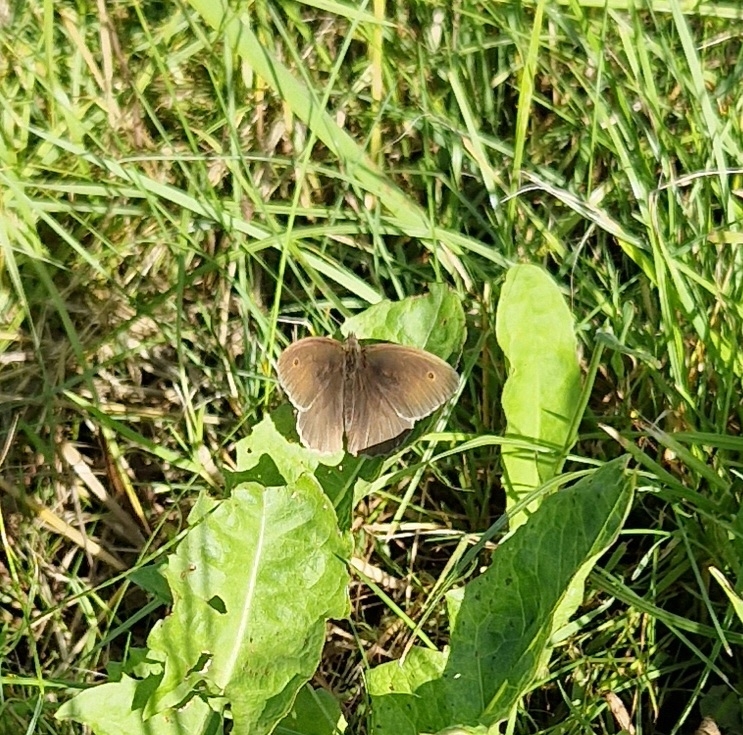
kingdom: Animalia
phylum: Arthropoda
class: Insecta
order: Lepidoptera
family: Nymphalidae
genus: Maniola
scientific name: Maniola jurtina
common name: Græsrandøje
